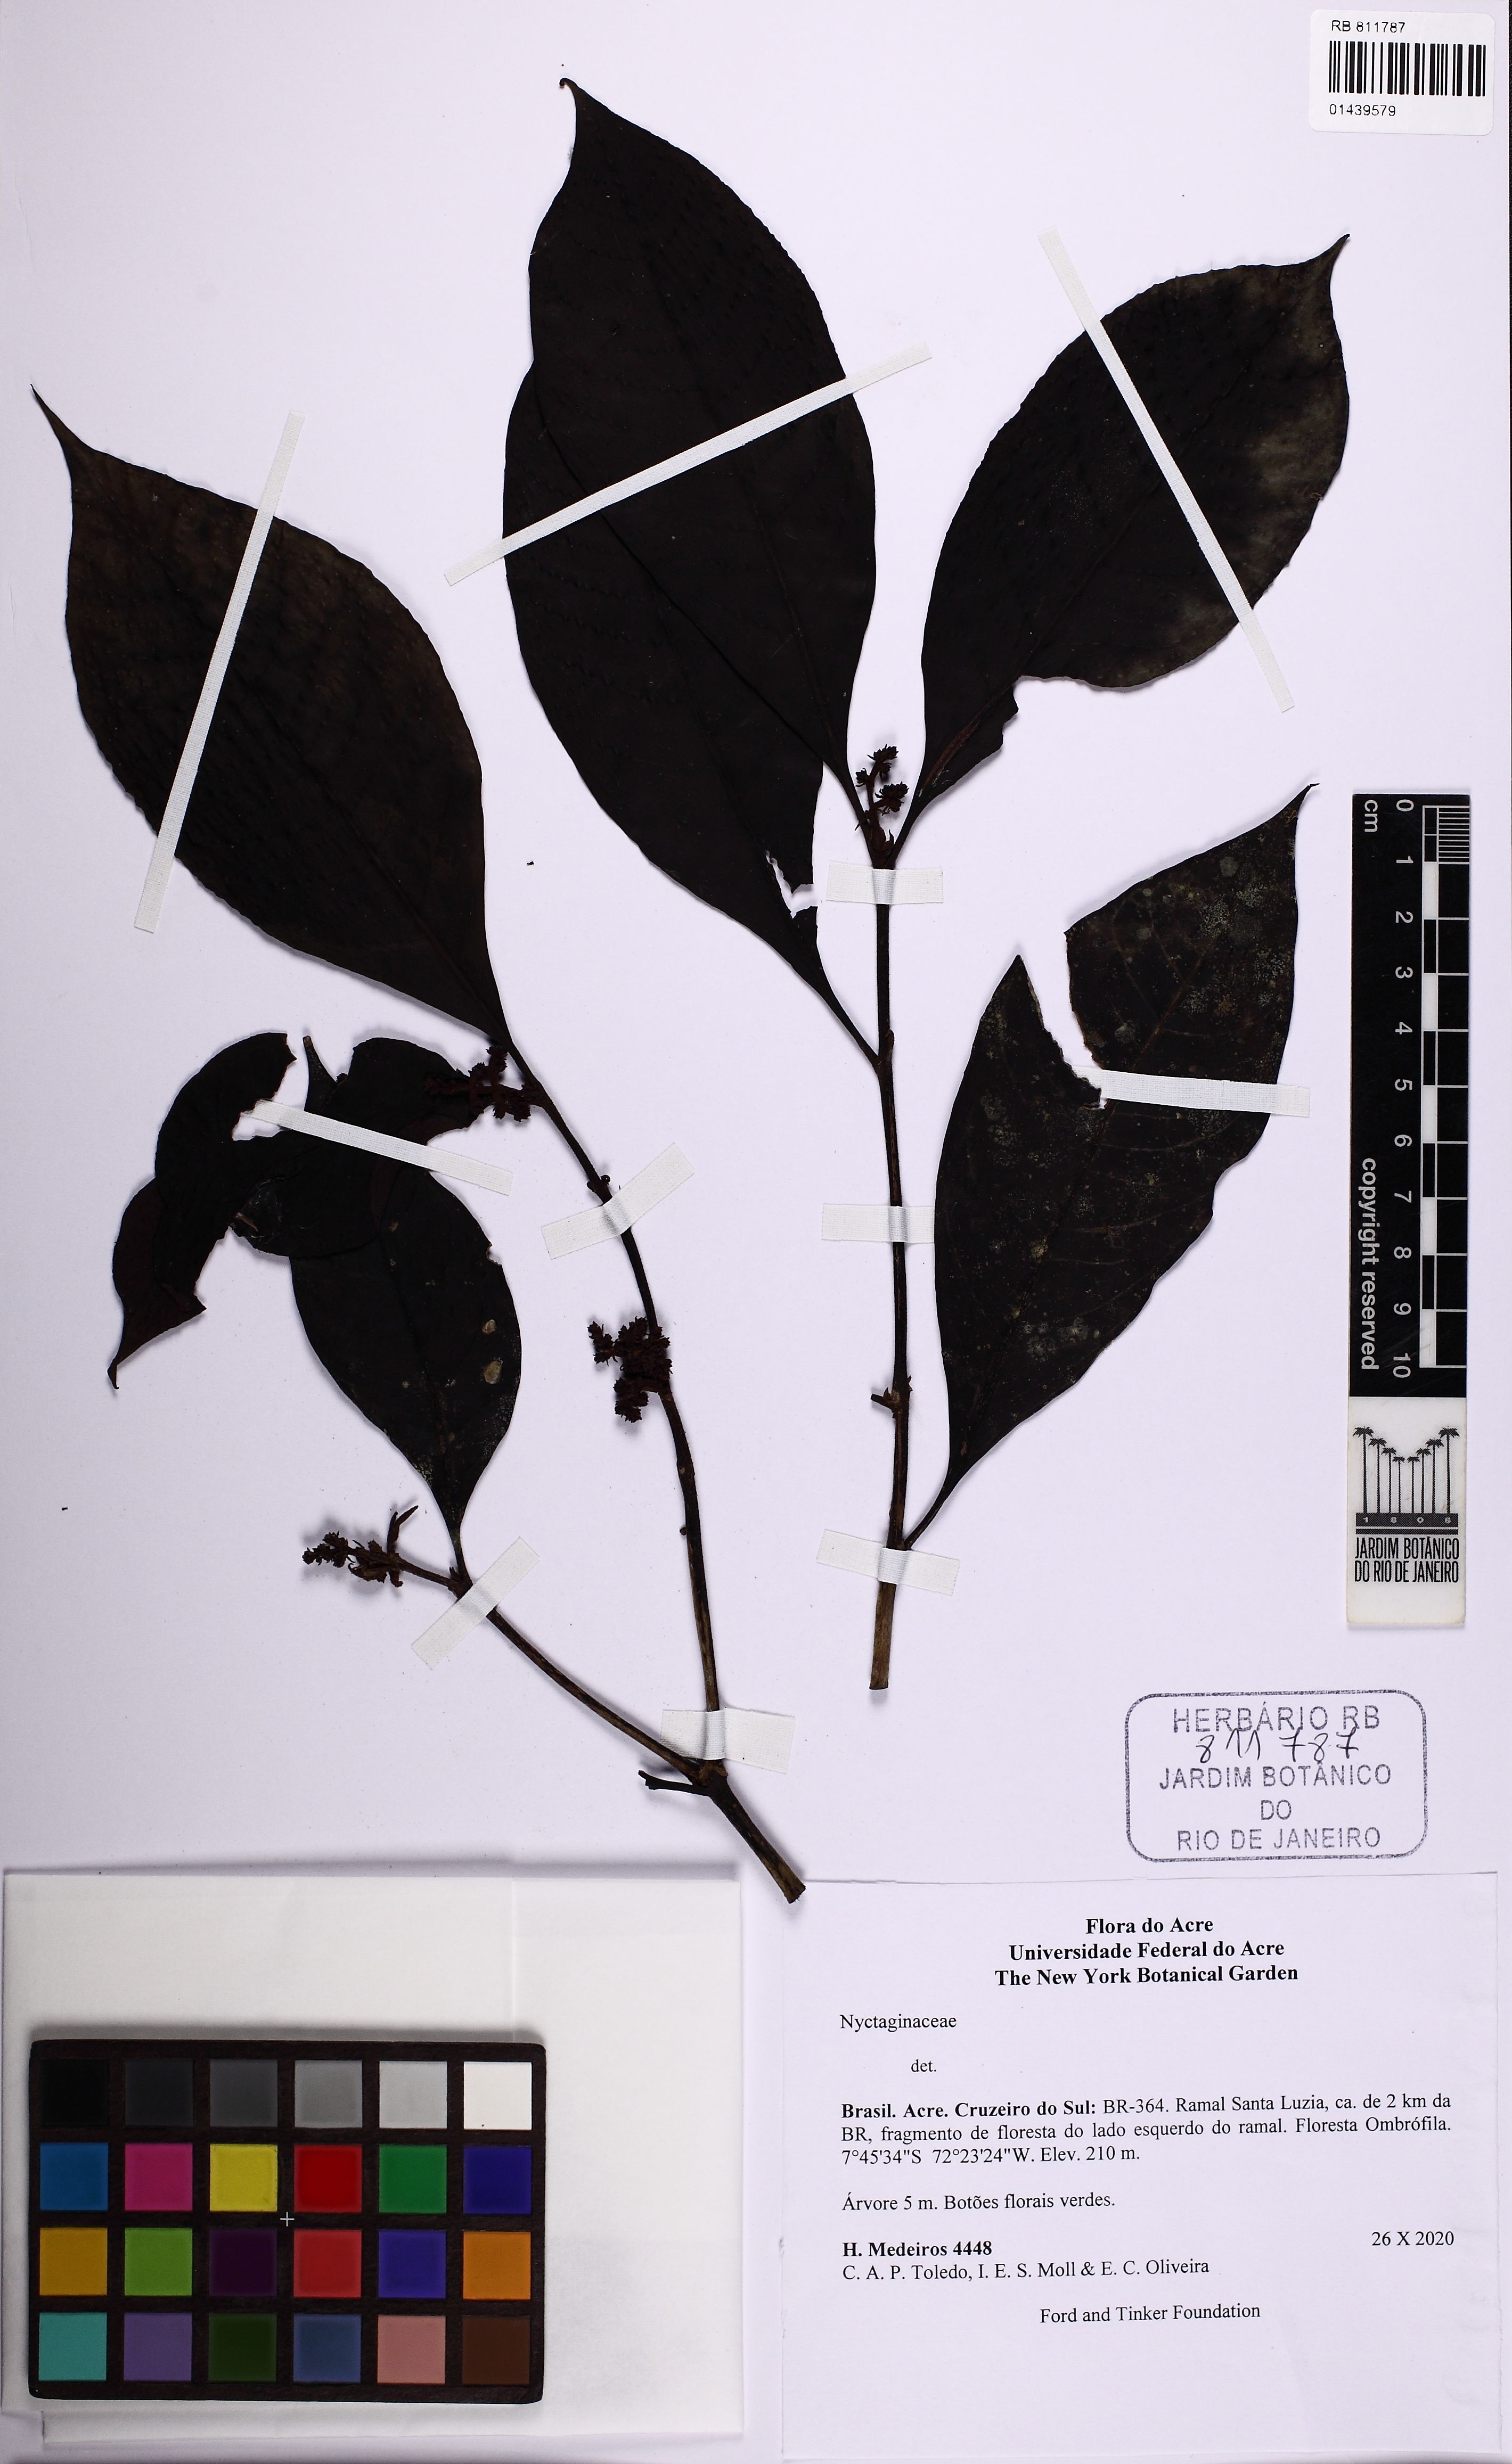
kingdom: Plantae
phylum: Tracheophyta
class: Magnoliopsida
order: Caryophyllales
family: Nyctaginaceae
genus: Neea
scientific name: Neea
